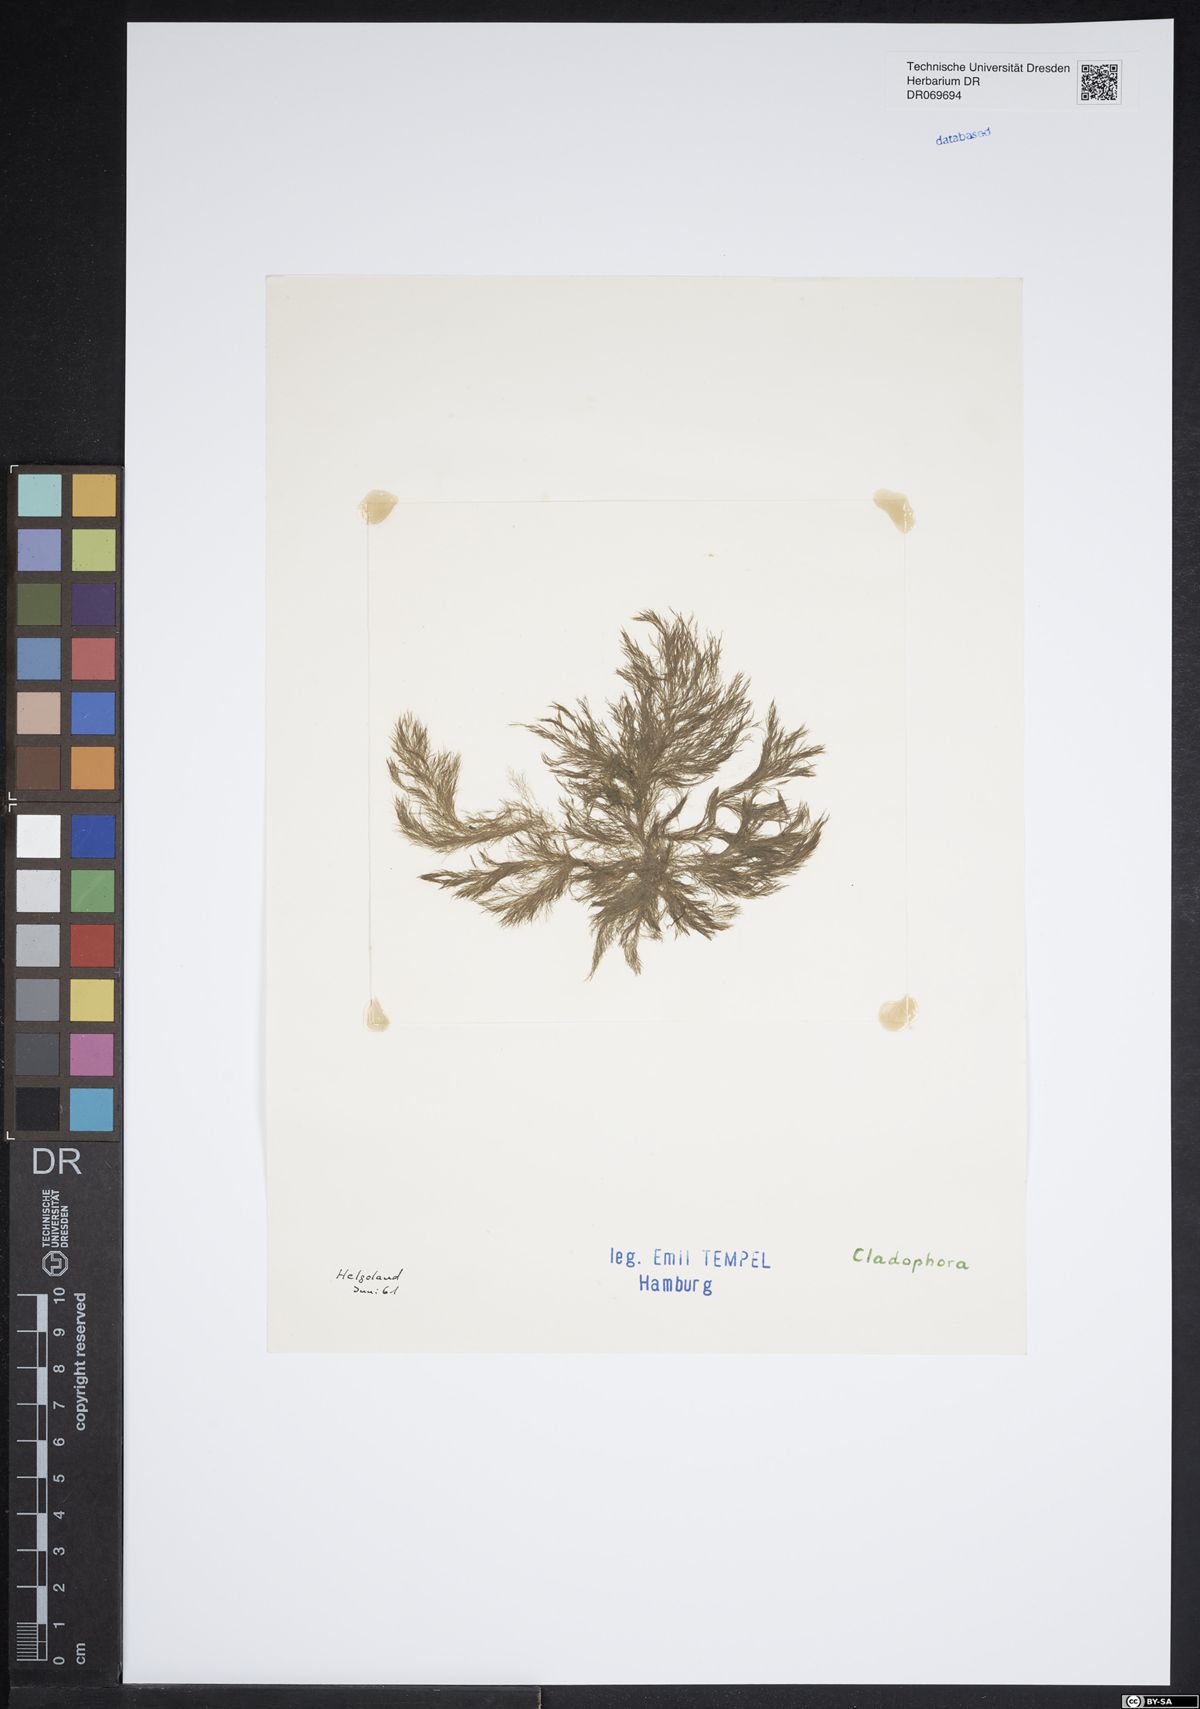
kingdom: Plantae
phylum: Chlorophyta
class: Ulvophyceae
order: Cladophorales
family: Cladophoraceae
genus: Cladophora
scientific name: Cladophora
